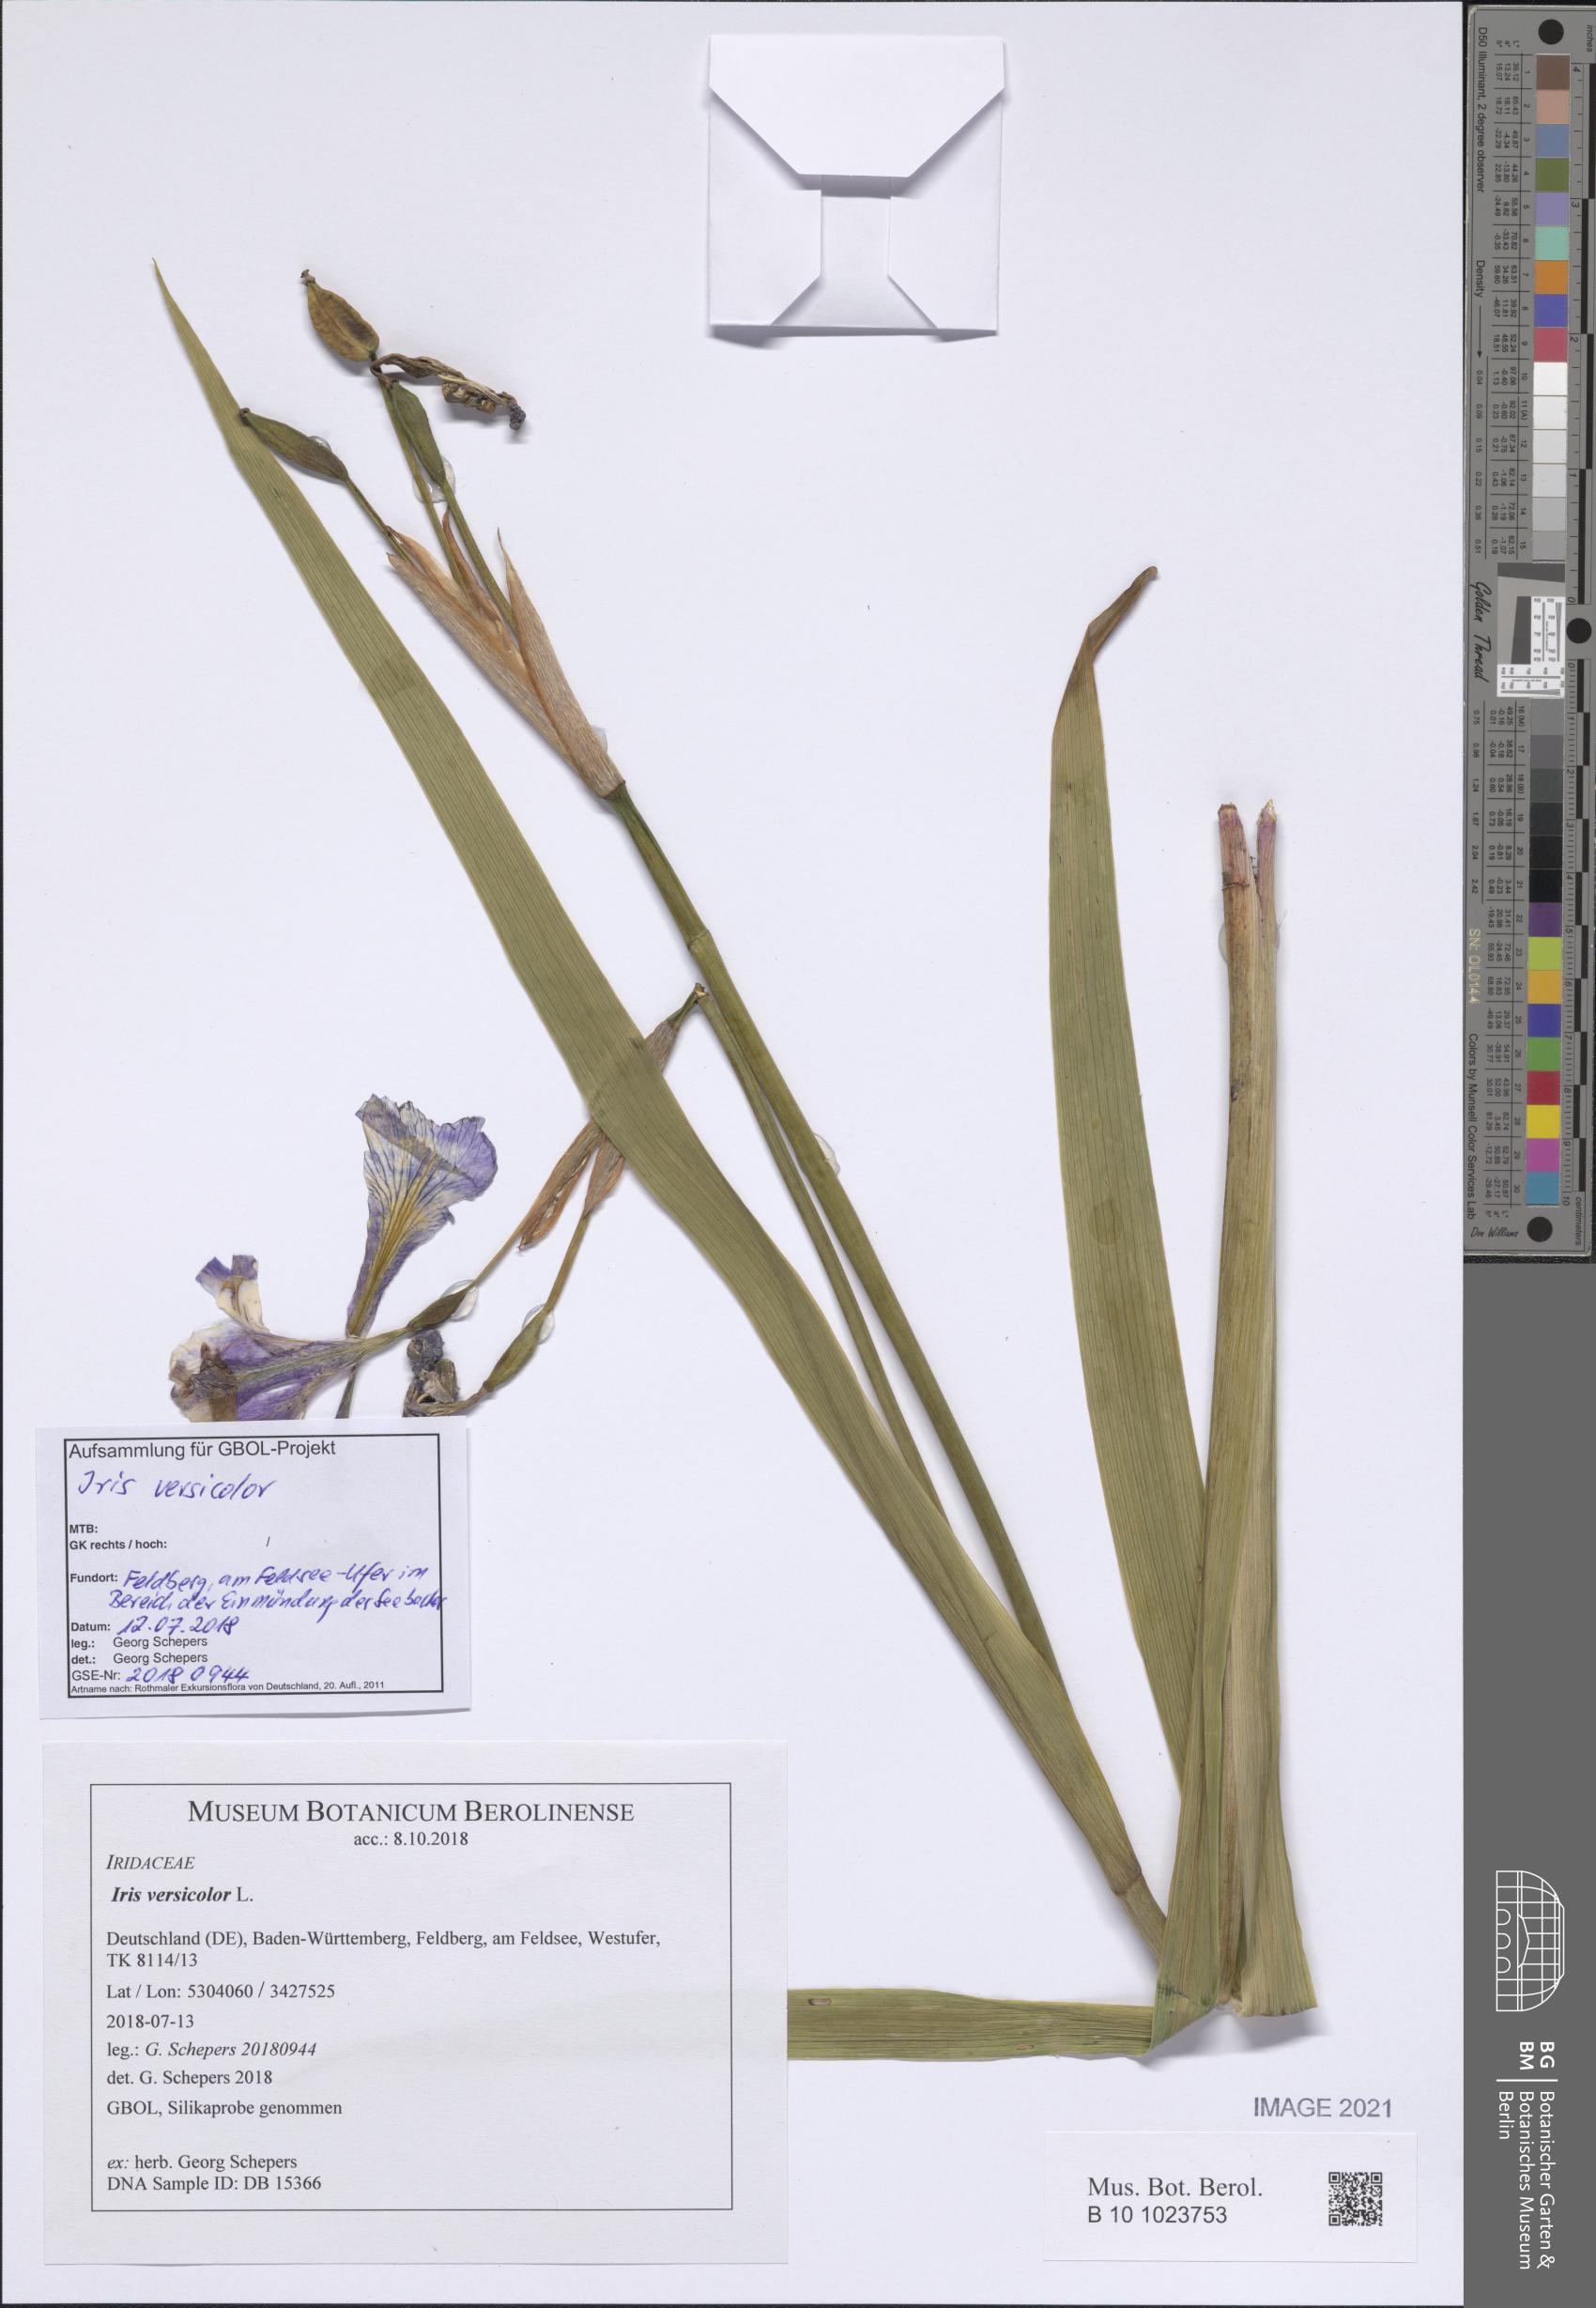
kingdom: Plantae
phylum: Tracheophyta
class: Liliopsida
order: Asparagales
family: Iridaceae
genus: Iris
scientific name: Iris versicolor
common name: Purple iris
